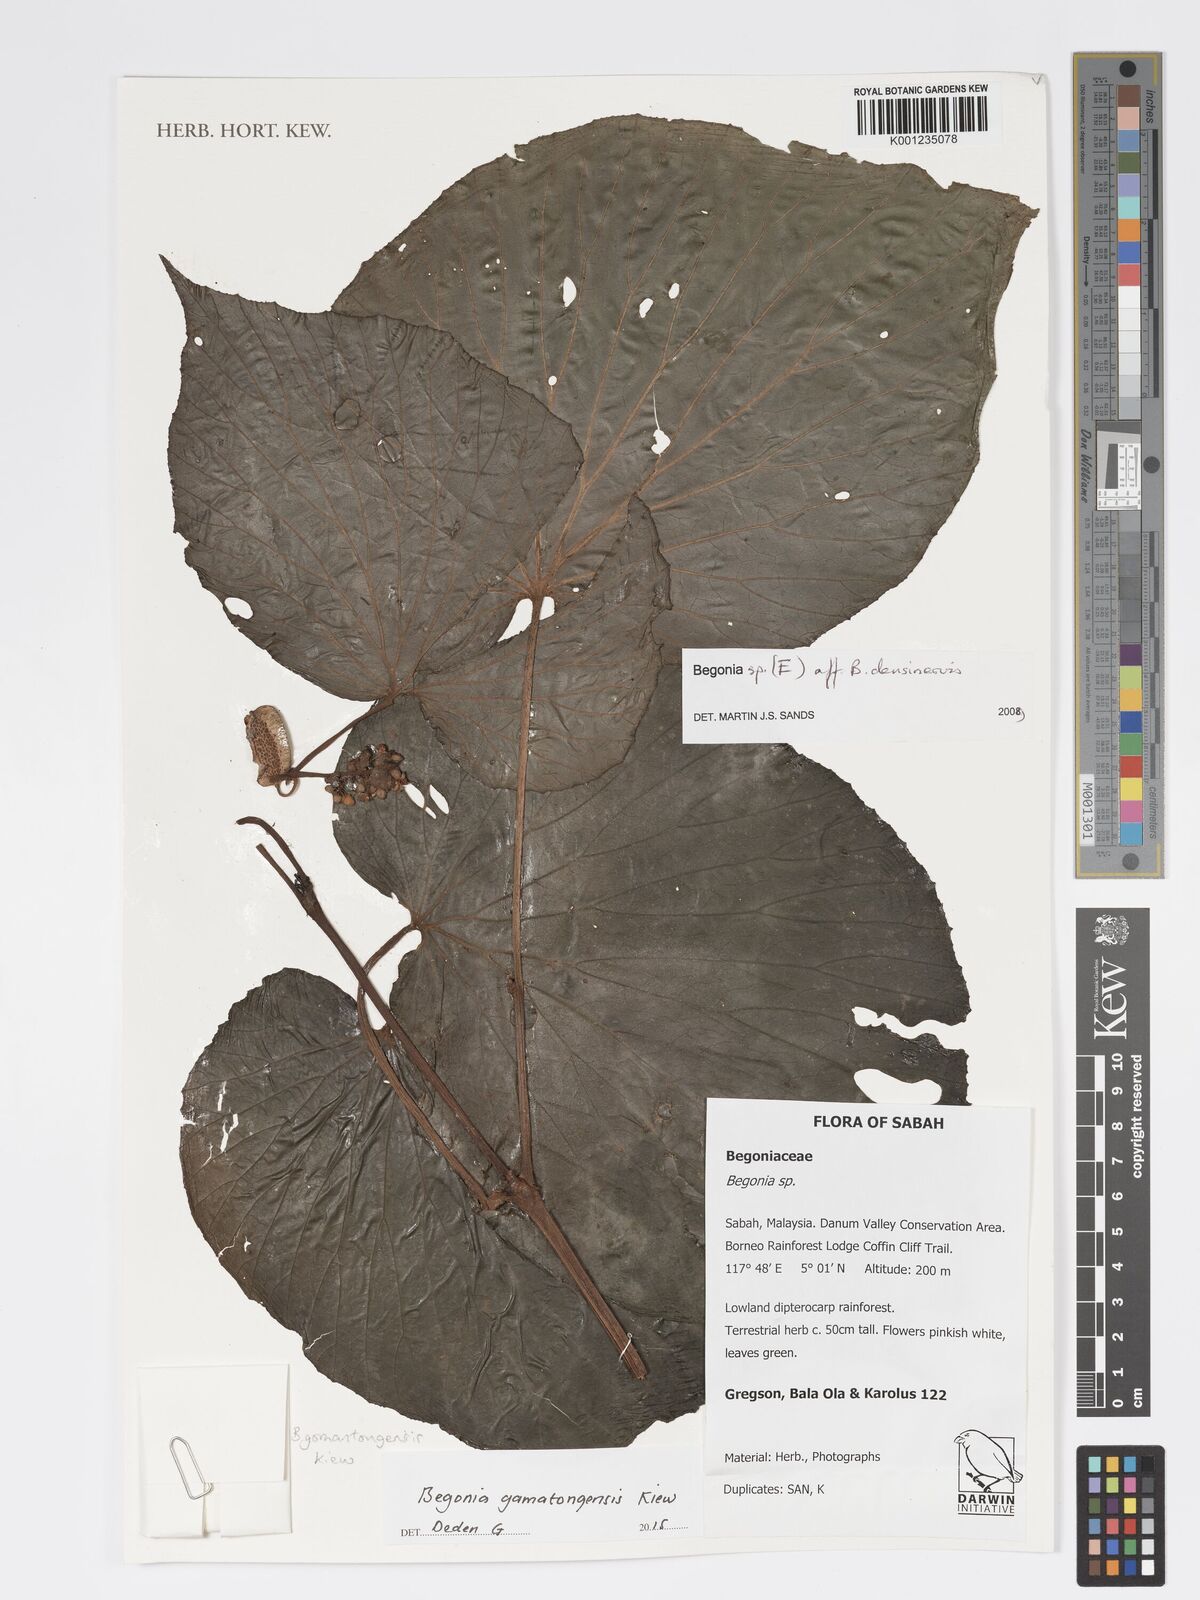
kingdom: Plantae
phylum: Tracheophyta
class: Magnoliopsida
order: Cucurbitales
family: Begoniaceae
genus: Begonia
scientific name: Begonia gomantongensis
